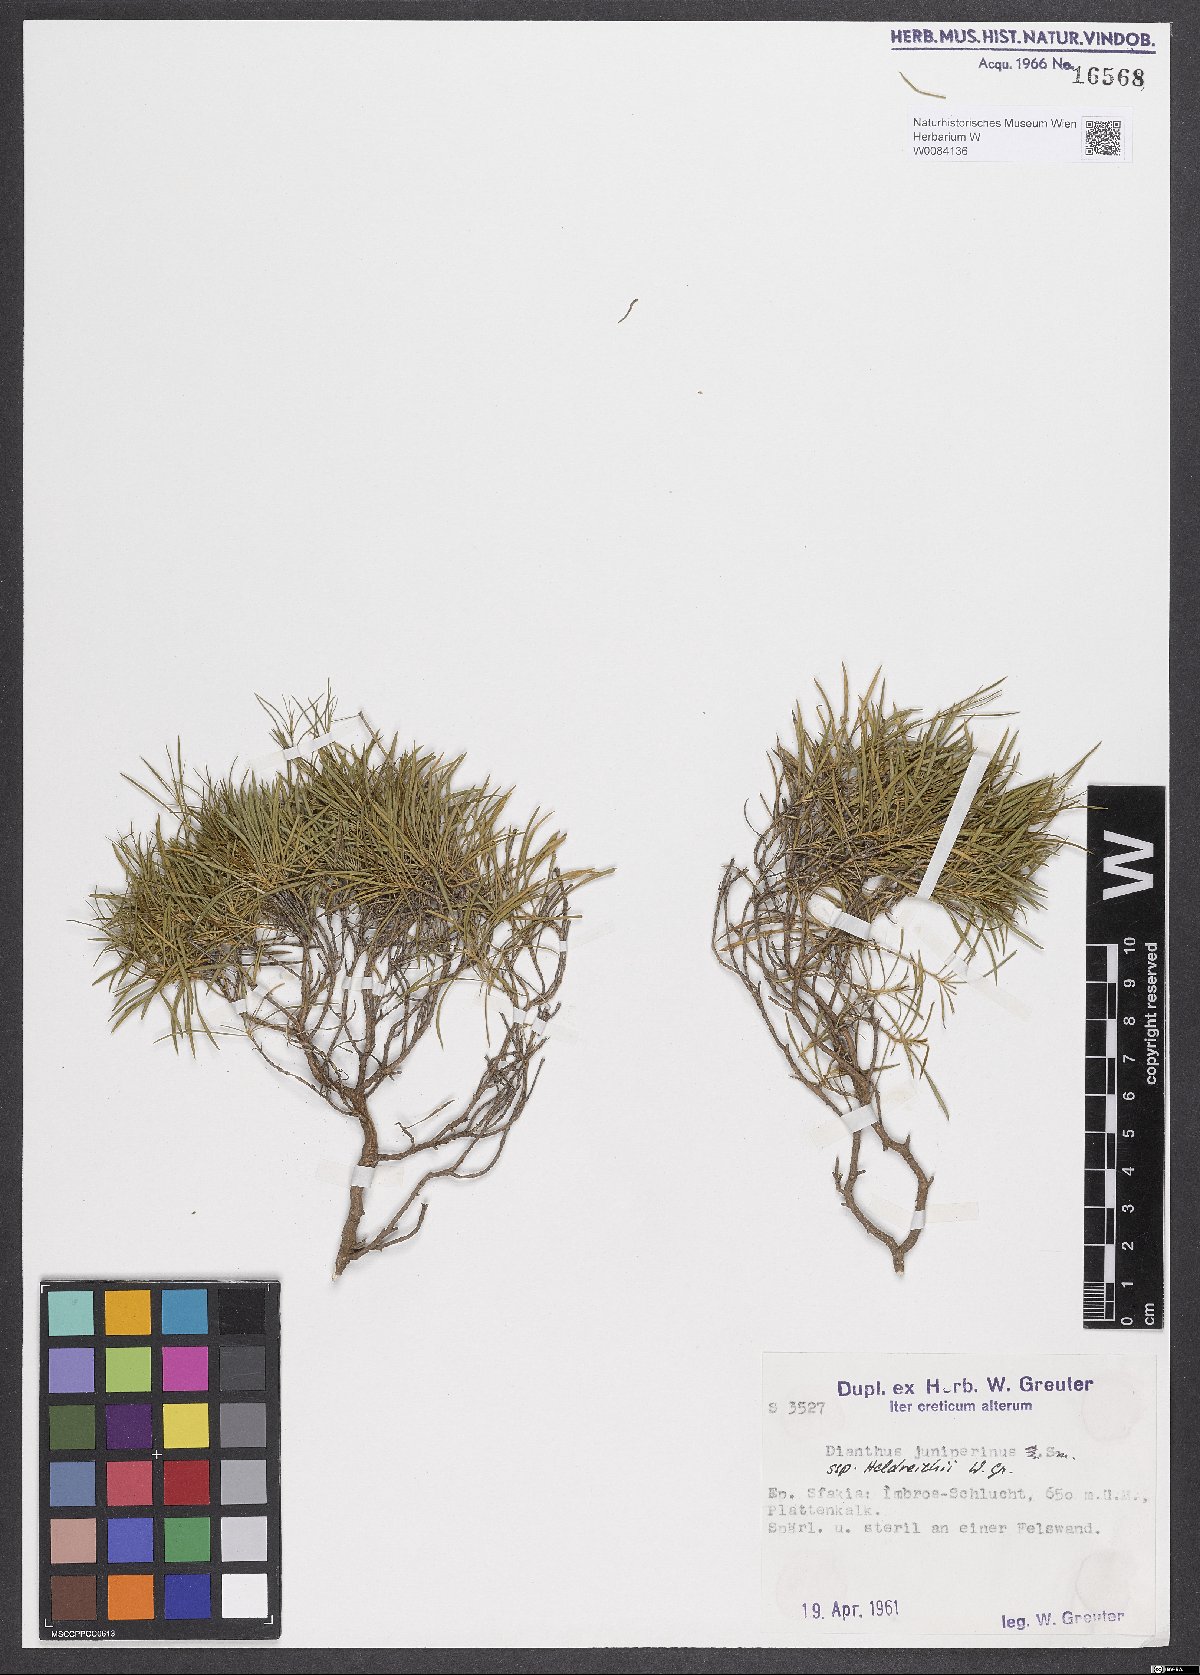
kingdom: Plantae
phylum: Tracheophyta
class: Magnoliopsida
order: Caryophyllales
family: Caryophyllaceae
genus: Dianthus
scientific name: Dianthus juniperinus
